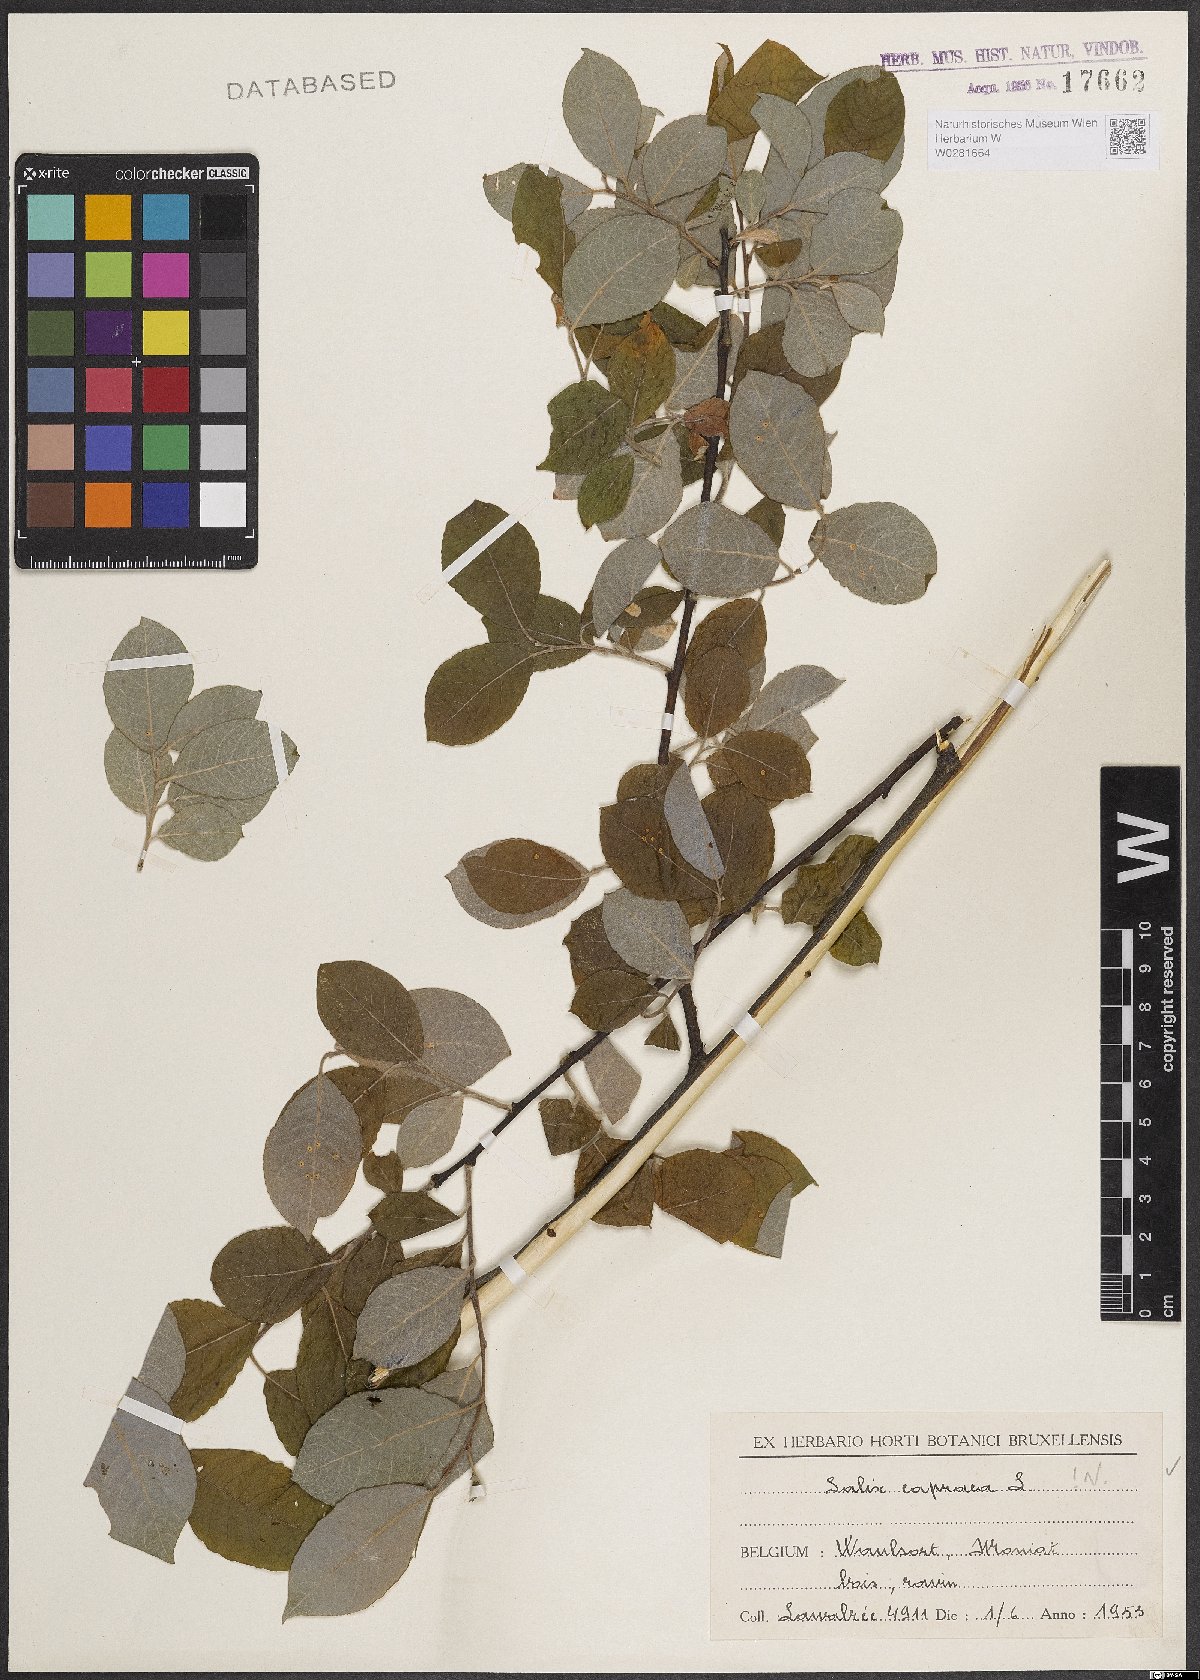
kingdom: Plantae
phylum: Tracheophyta
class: Magnoliopsida
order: Malpighiales
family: Salicaceae
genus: Salix
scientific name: Salix caprea
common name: Goat willow
